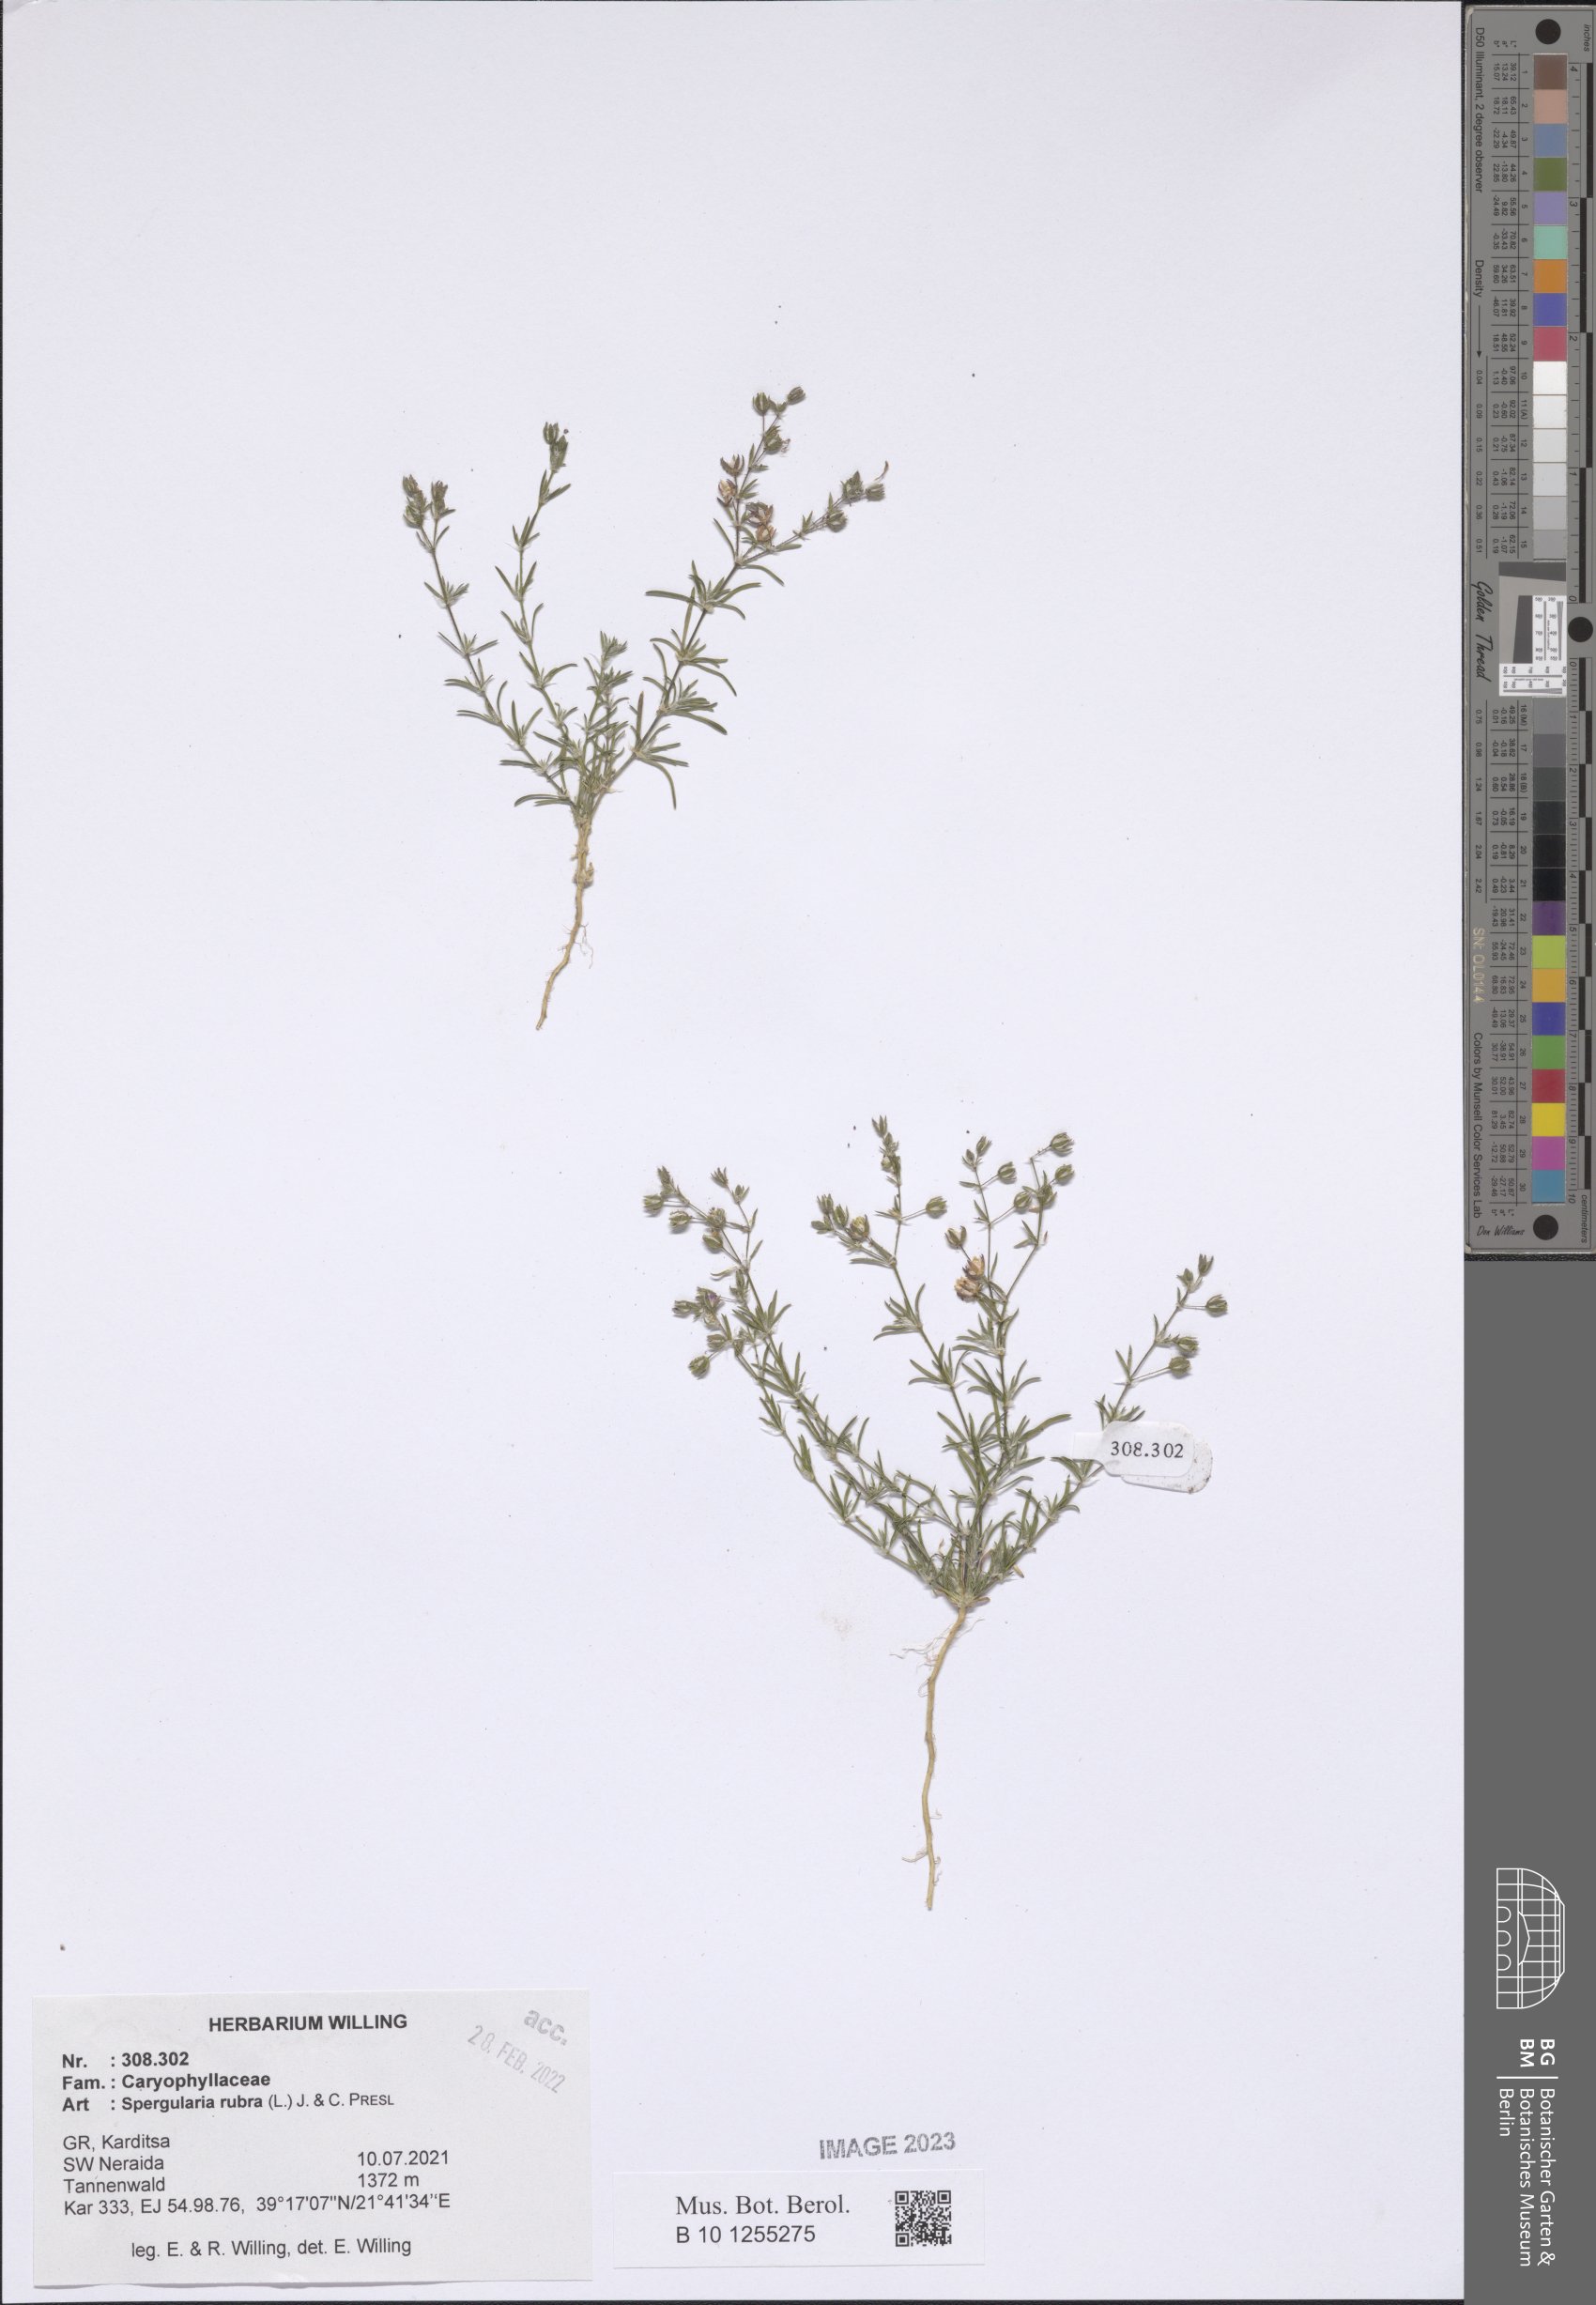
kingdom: Plantae
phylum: Tracheophyta
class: Magnoliopsida
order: Caryophyllales
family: Caryophyllaceae
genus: Spergularia
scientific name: Spergularia rubra
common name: Red sand-spurrey
